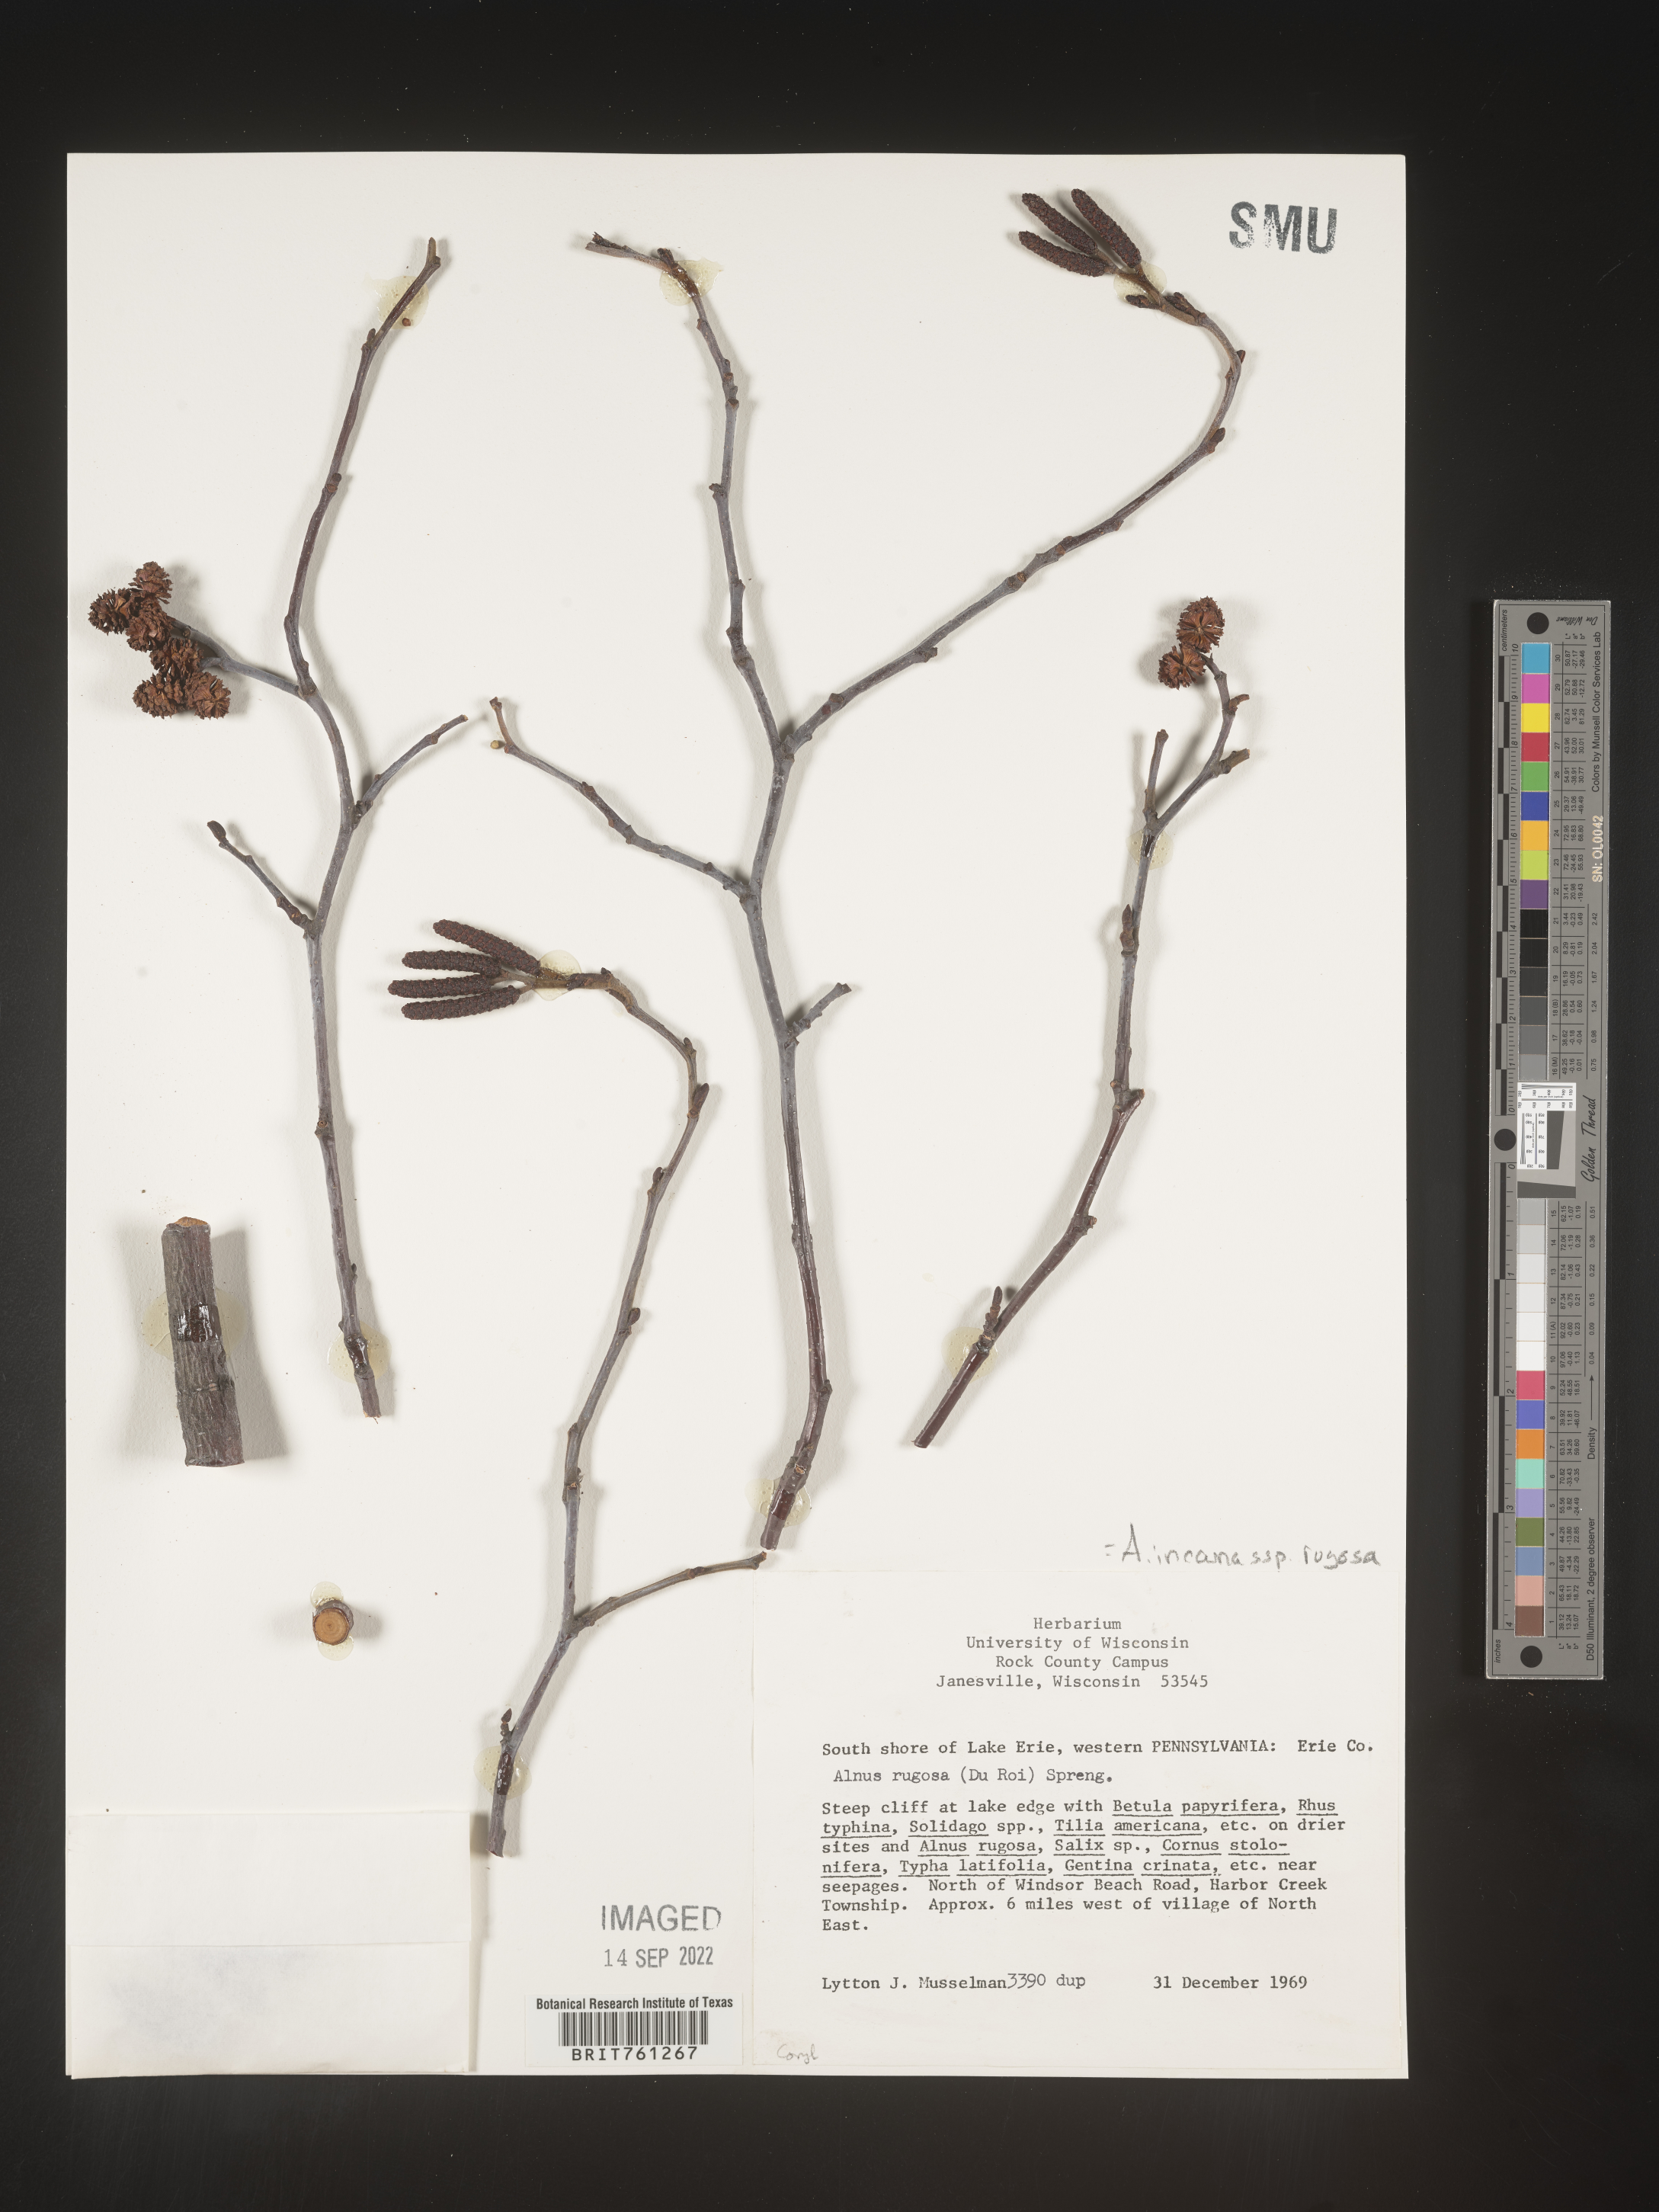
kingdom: Plantae
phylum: Tracheophyta
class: Magnoliopsida
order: Fagales
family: Betulaceae
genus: Alnus
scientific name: Alnus incana
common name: Grey alder
